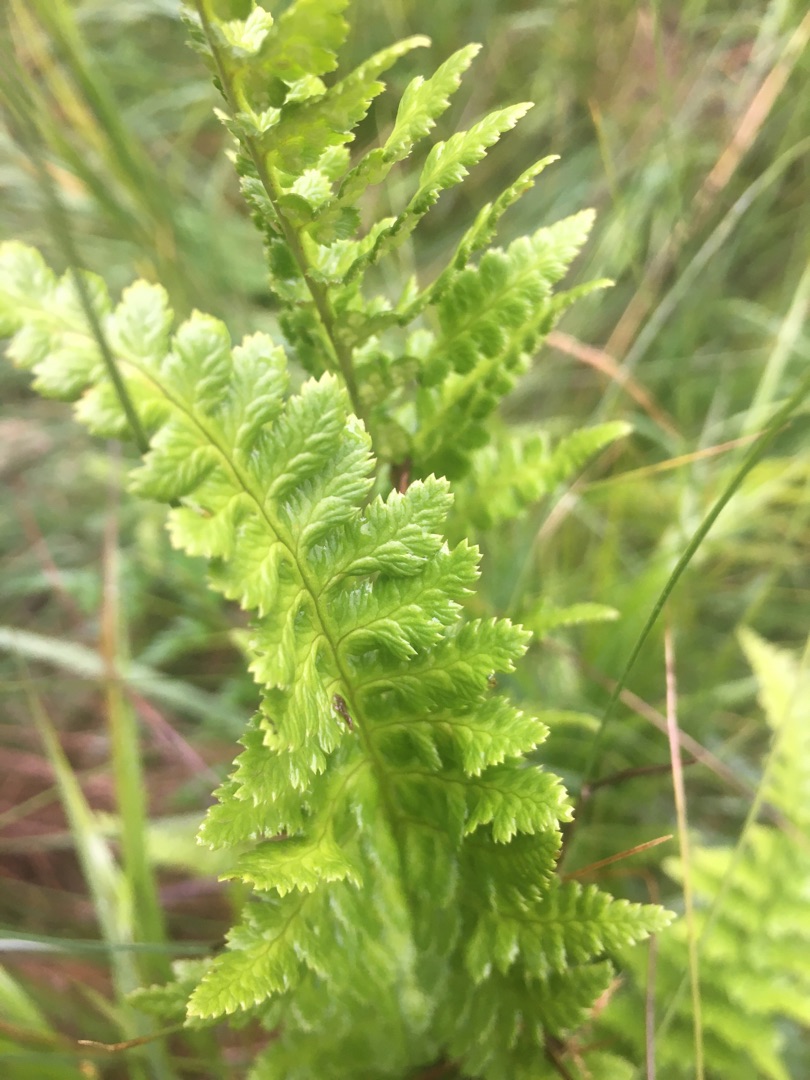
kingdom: Plantae
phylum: Tracheophyta
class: Polypodiopsida
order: Polypodiales
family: Dryopteridaceae
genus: Dryopteris
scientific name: Dryopteris cristata
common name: Butfinnet mangeløv
